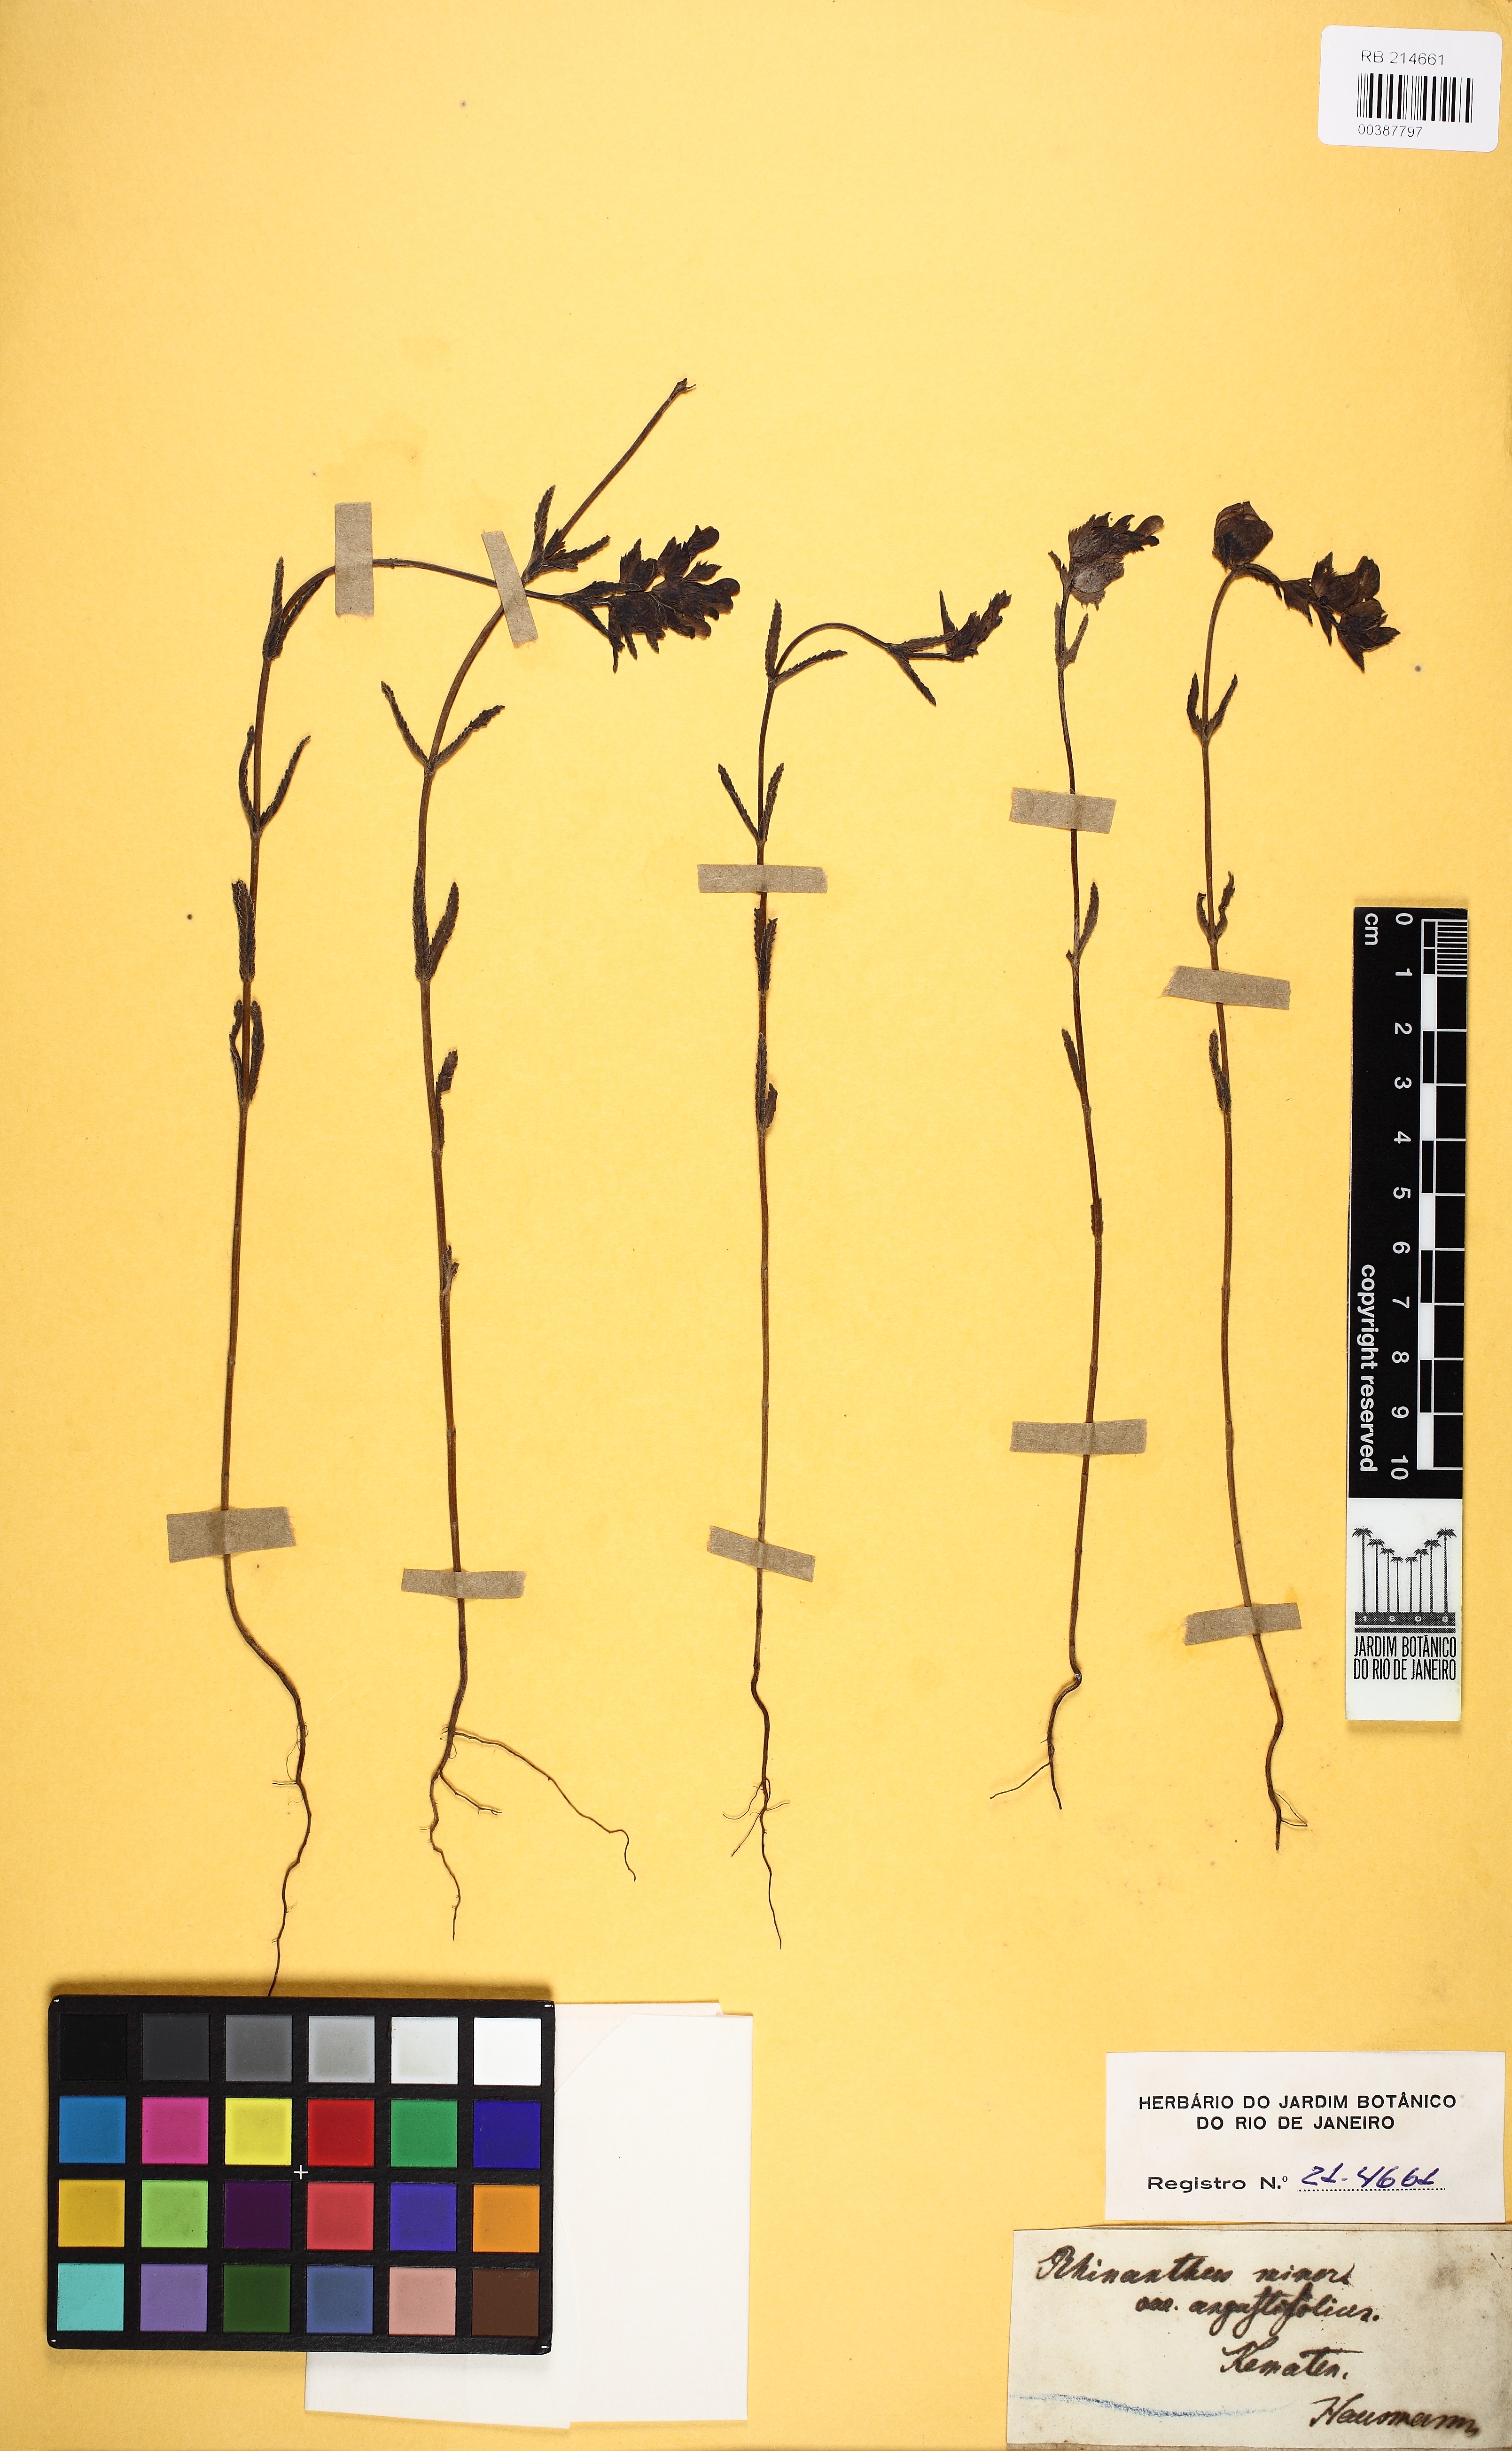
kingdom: Plantae
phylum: Tracheophyta
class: Magnoliopsida
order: Lamiales
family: Orobanchaceae
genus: Rhinanthus
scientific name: Rhinanthus minor
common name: Yellow-rattle
